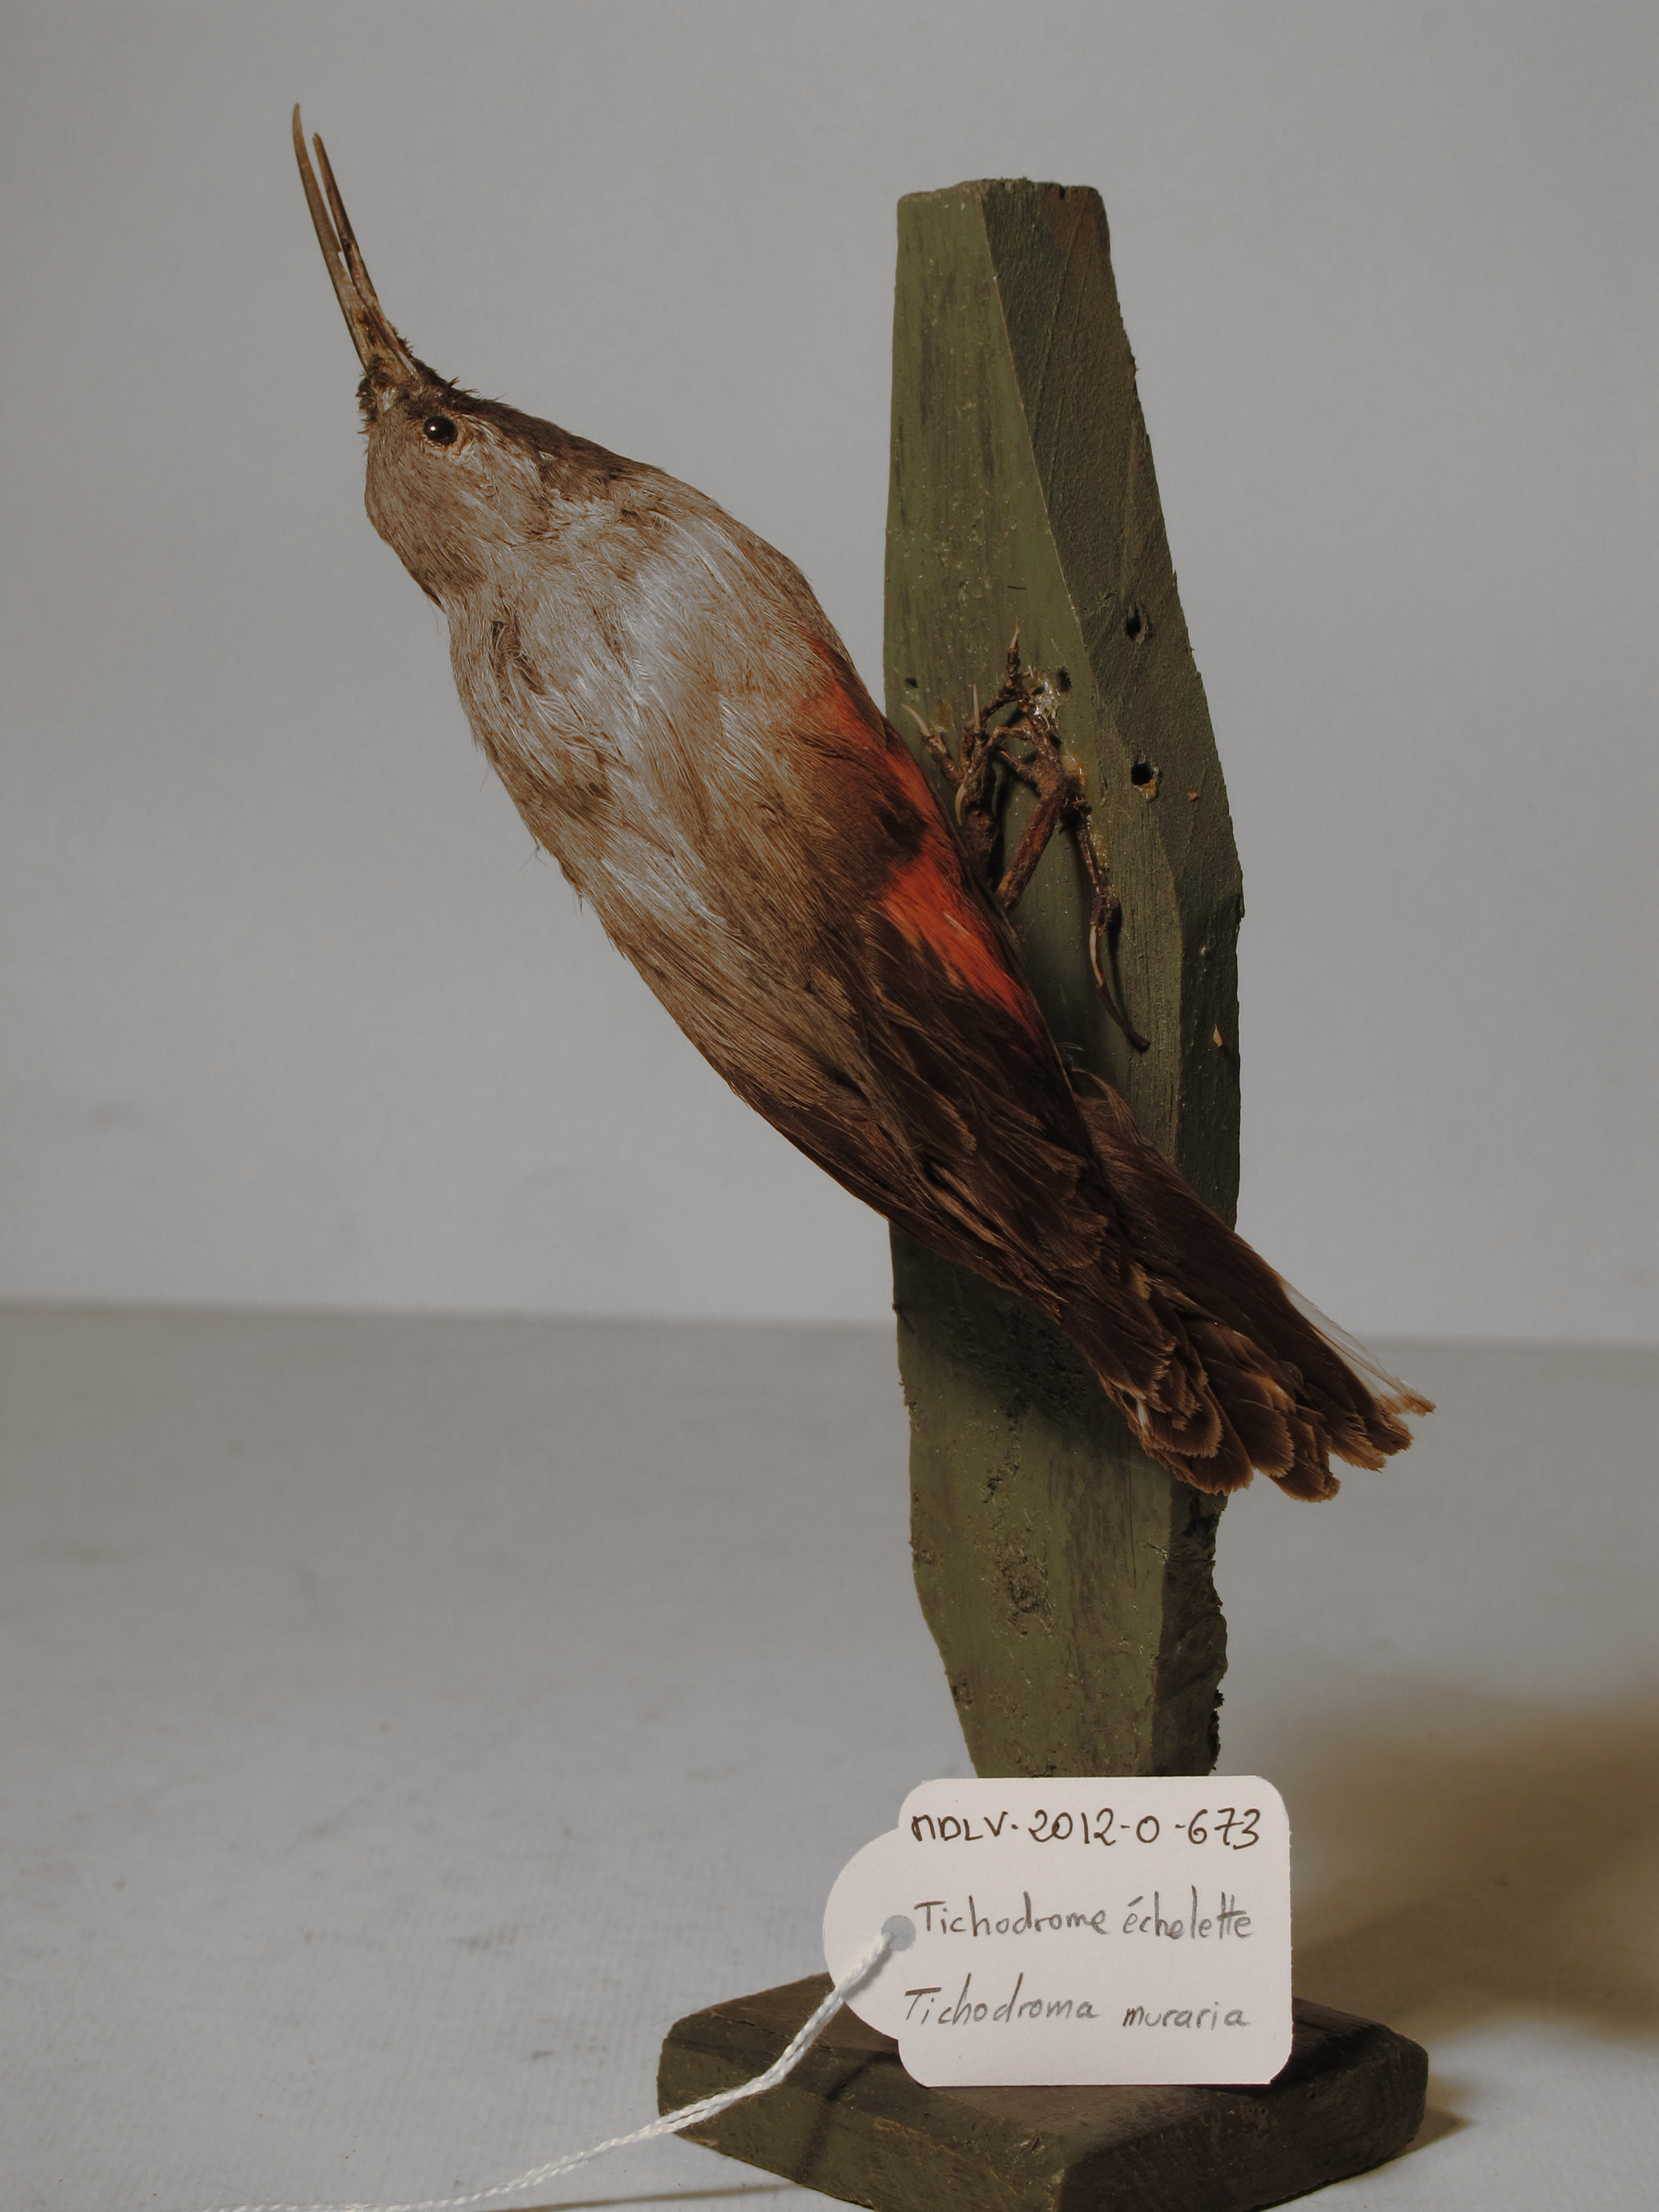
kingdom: Animalia
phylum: Chordata
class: Aves
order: Passeriformes
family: Tichodromidae
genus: Tichodroma
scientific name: Tichodroma muraria
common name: Wallcreeper
